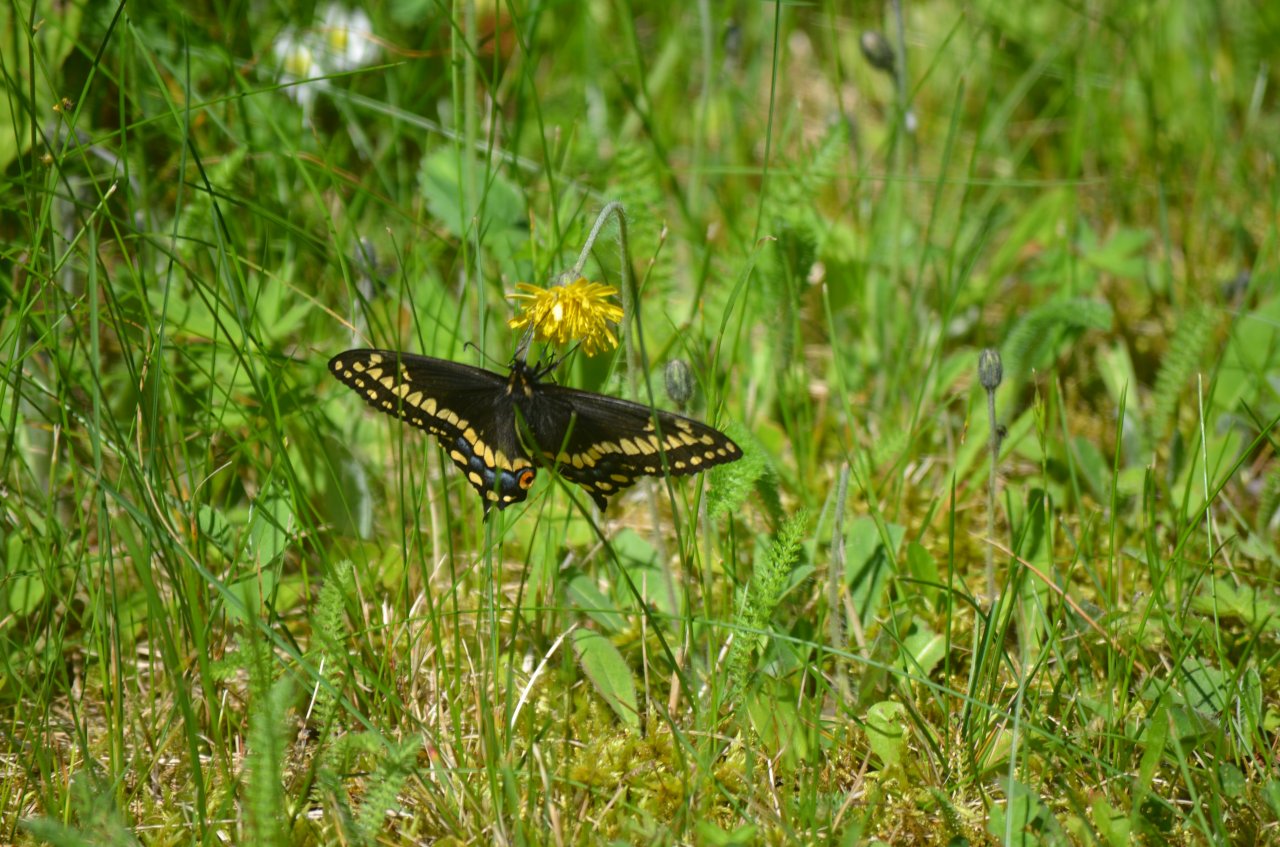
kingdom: Animalia
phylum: Arthropoda
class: Insecta
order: Lepidoptera
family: Papilionidae
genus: Papilio
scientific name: Papilio brevicauda
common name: Short-tailed Swallowtail
